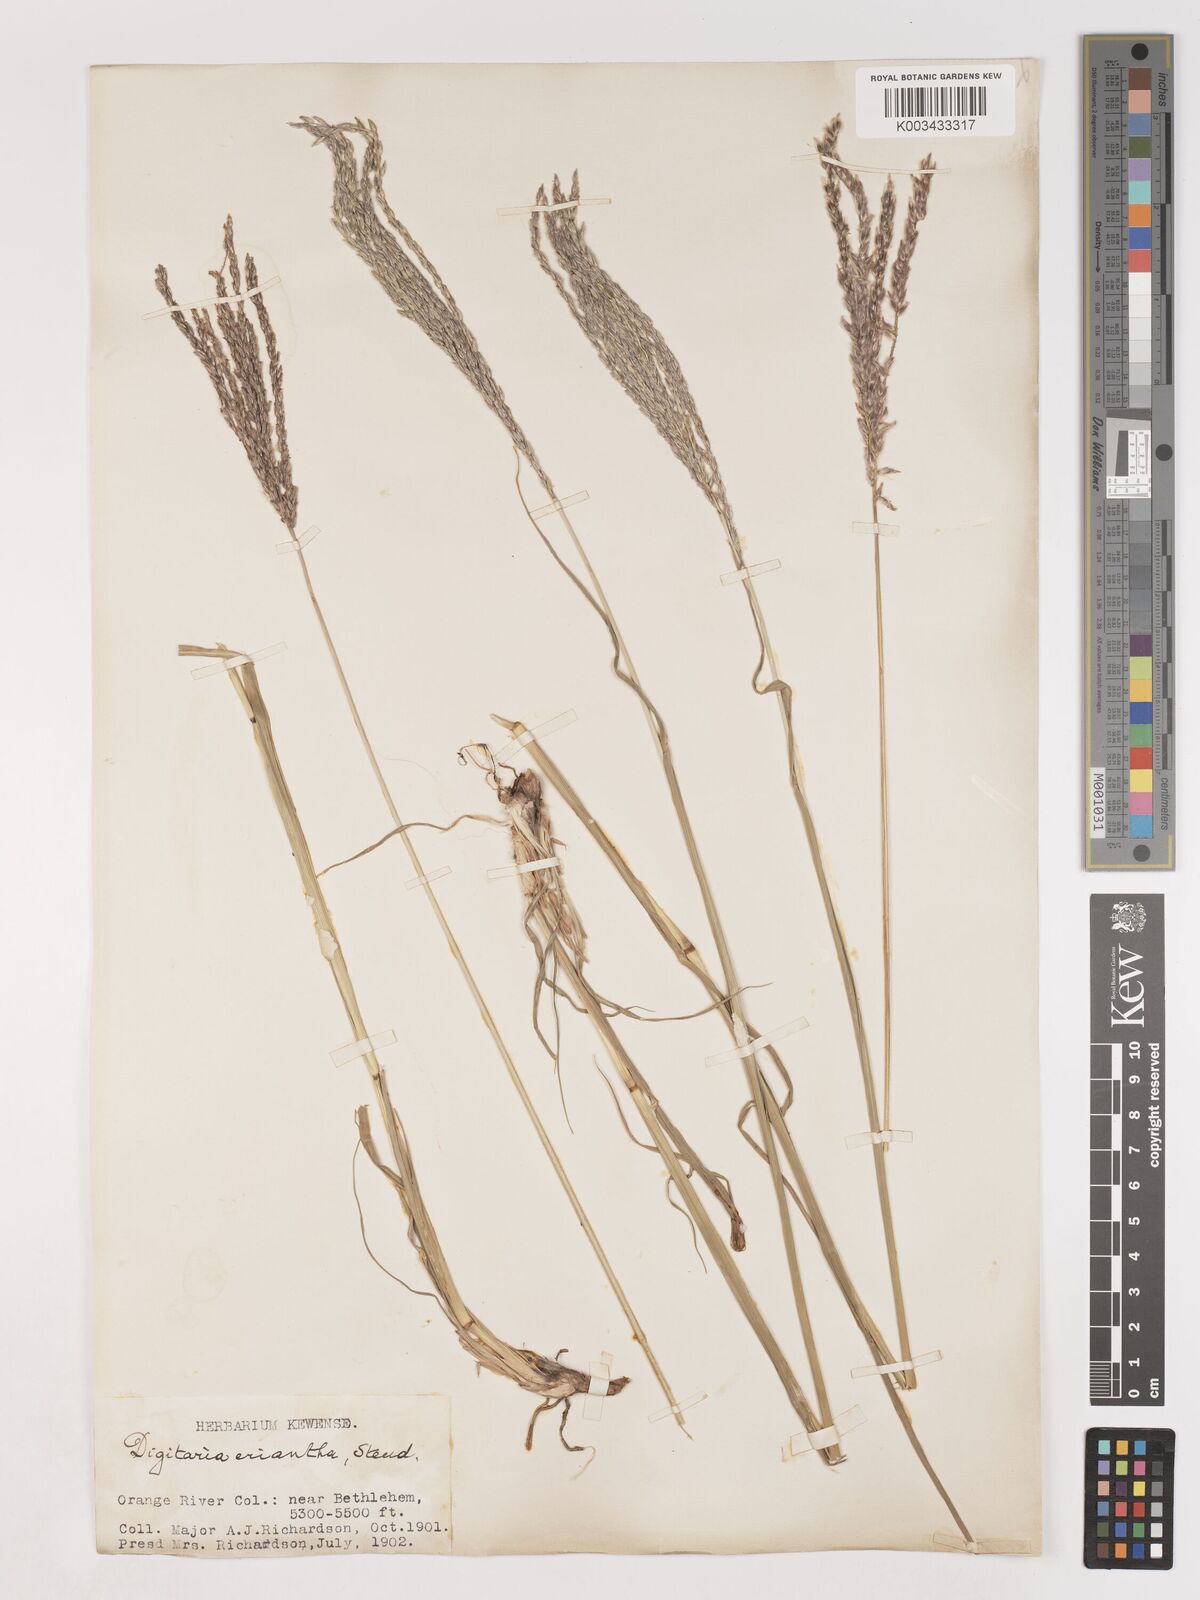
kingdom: Plantae
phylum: Tracheophyta
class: Liliopsida
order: Poales
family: Poaceae
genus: Digitaria
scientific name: Digitaria eriantha
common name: Digitgrass
